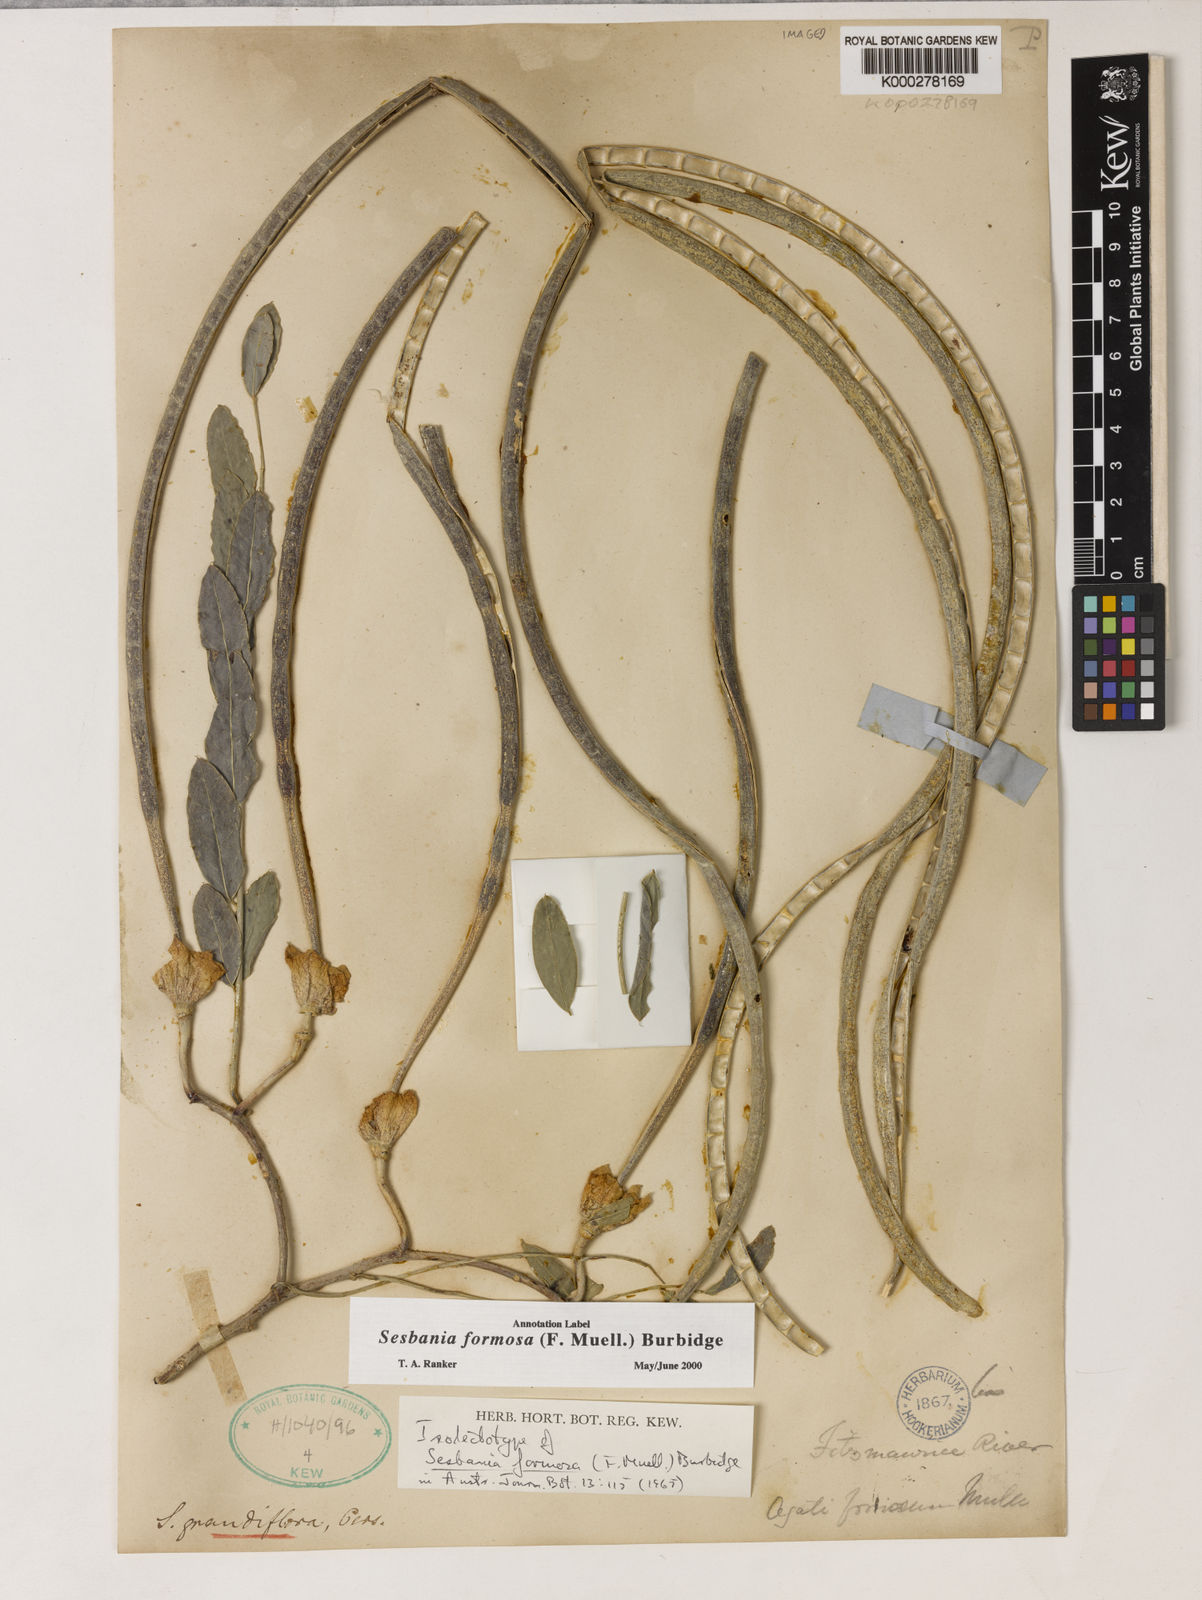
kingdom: Plantae
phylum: Tracheophyta
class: Magnoliopsida
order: Fabales
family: Fabaceae
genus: Sesbania
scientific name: Sesbania formosa
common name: Vegetable-hummingbird
